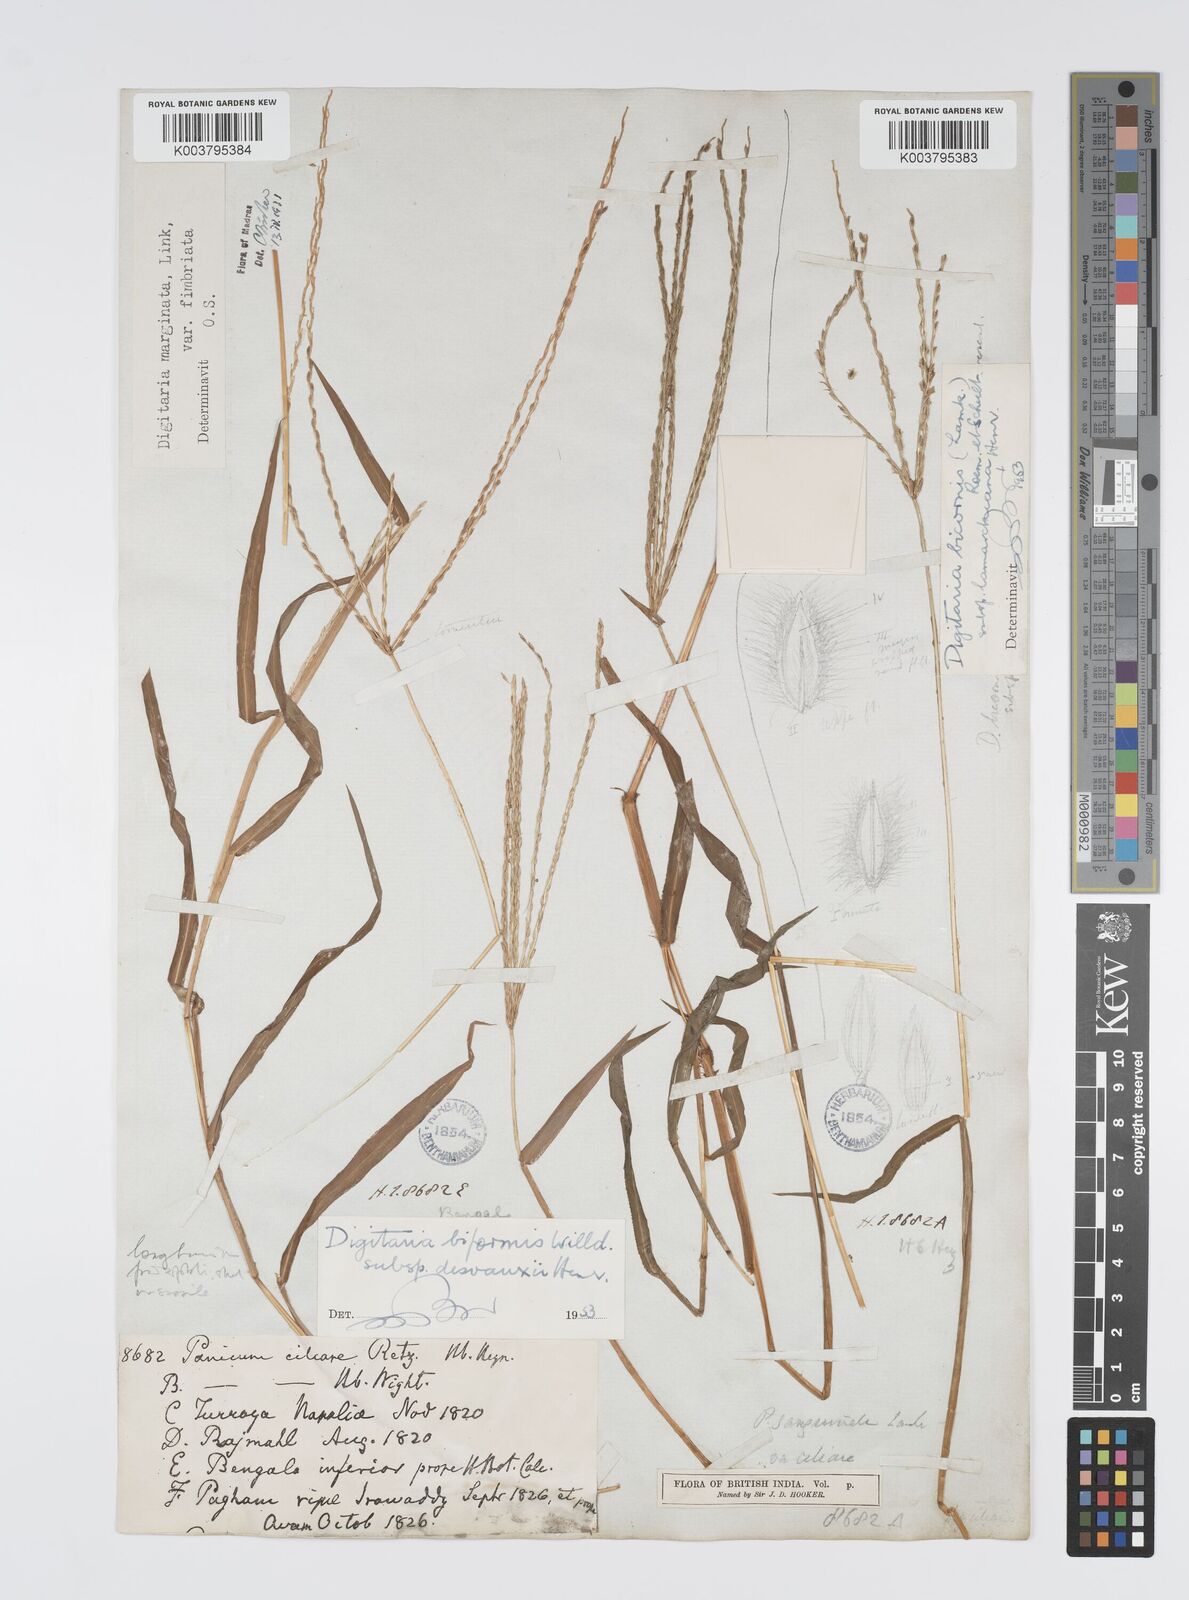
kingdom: Plantae
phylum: Tracheophyta
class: Liliopsida
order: Poales
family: Poaceae
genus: Digitaria
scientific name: Digitaria ciliaris
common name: Tropical finger-grass
